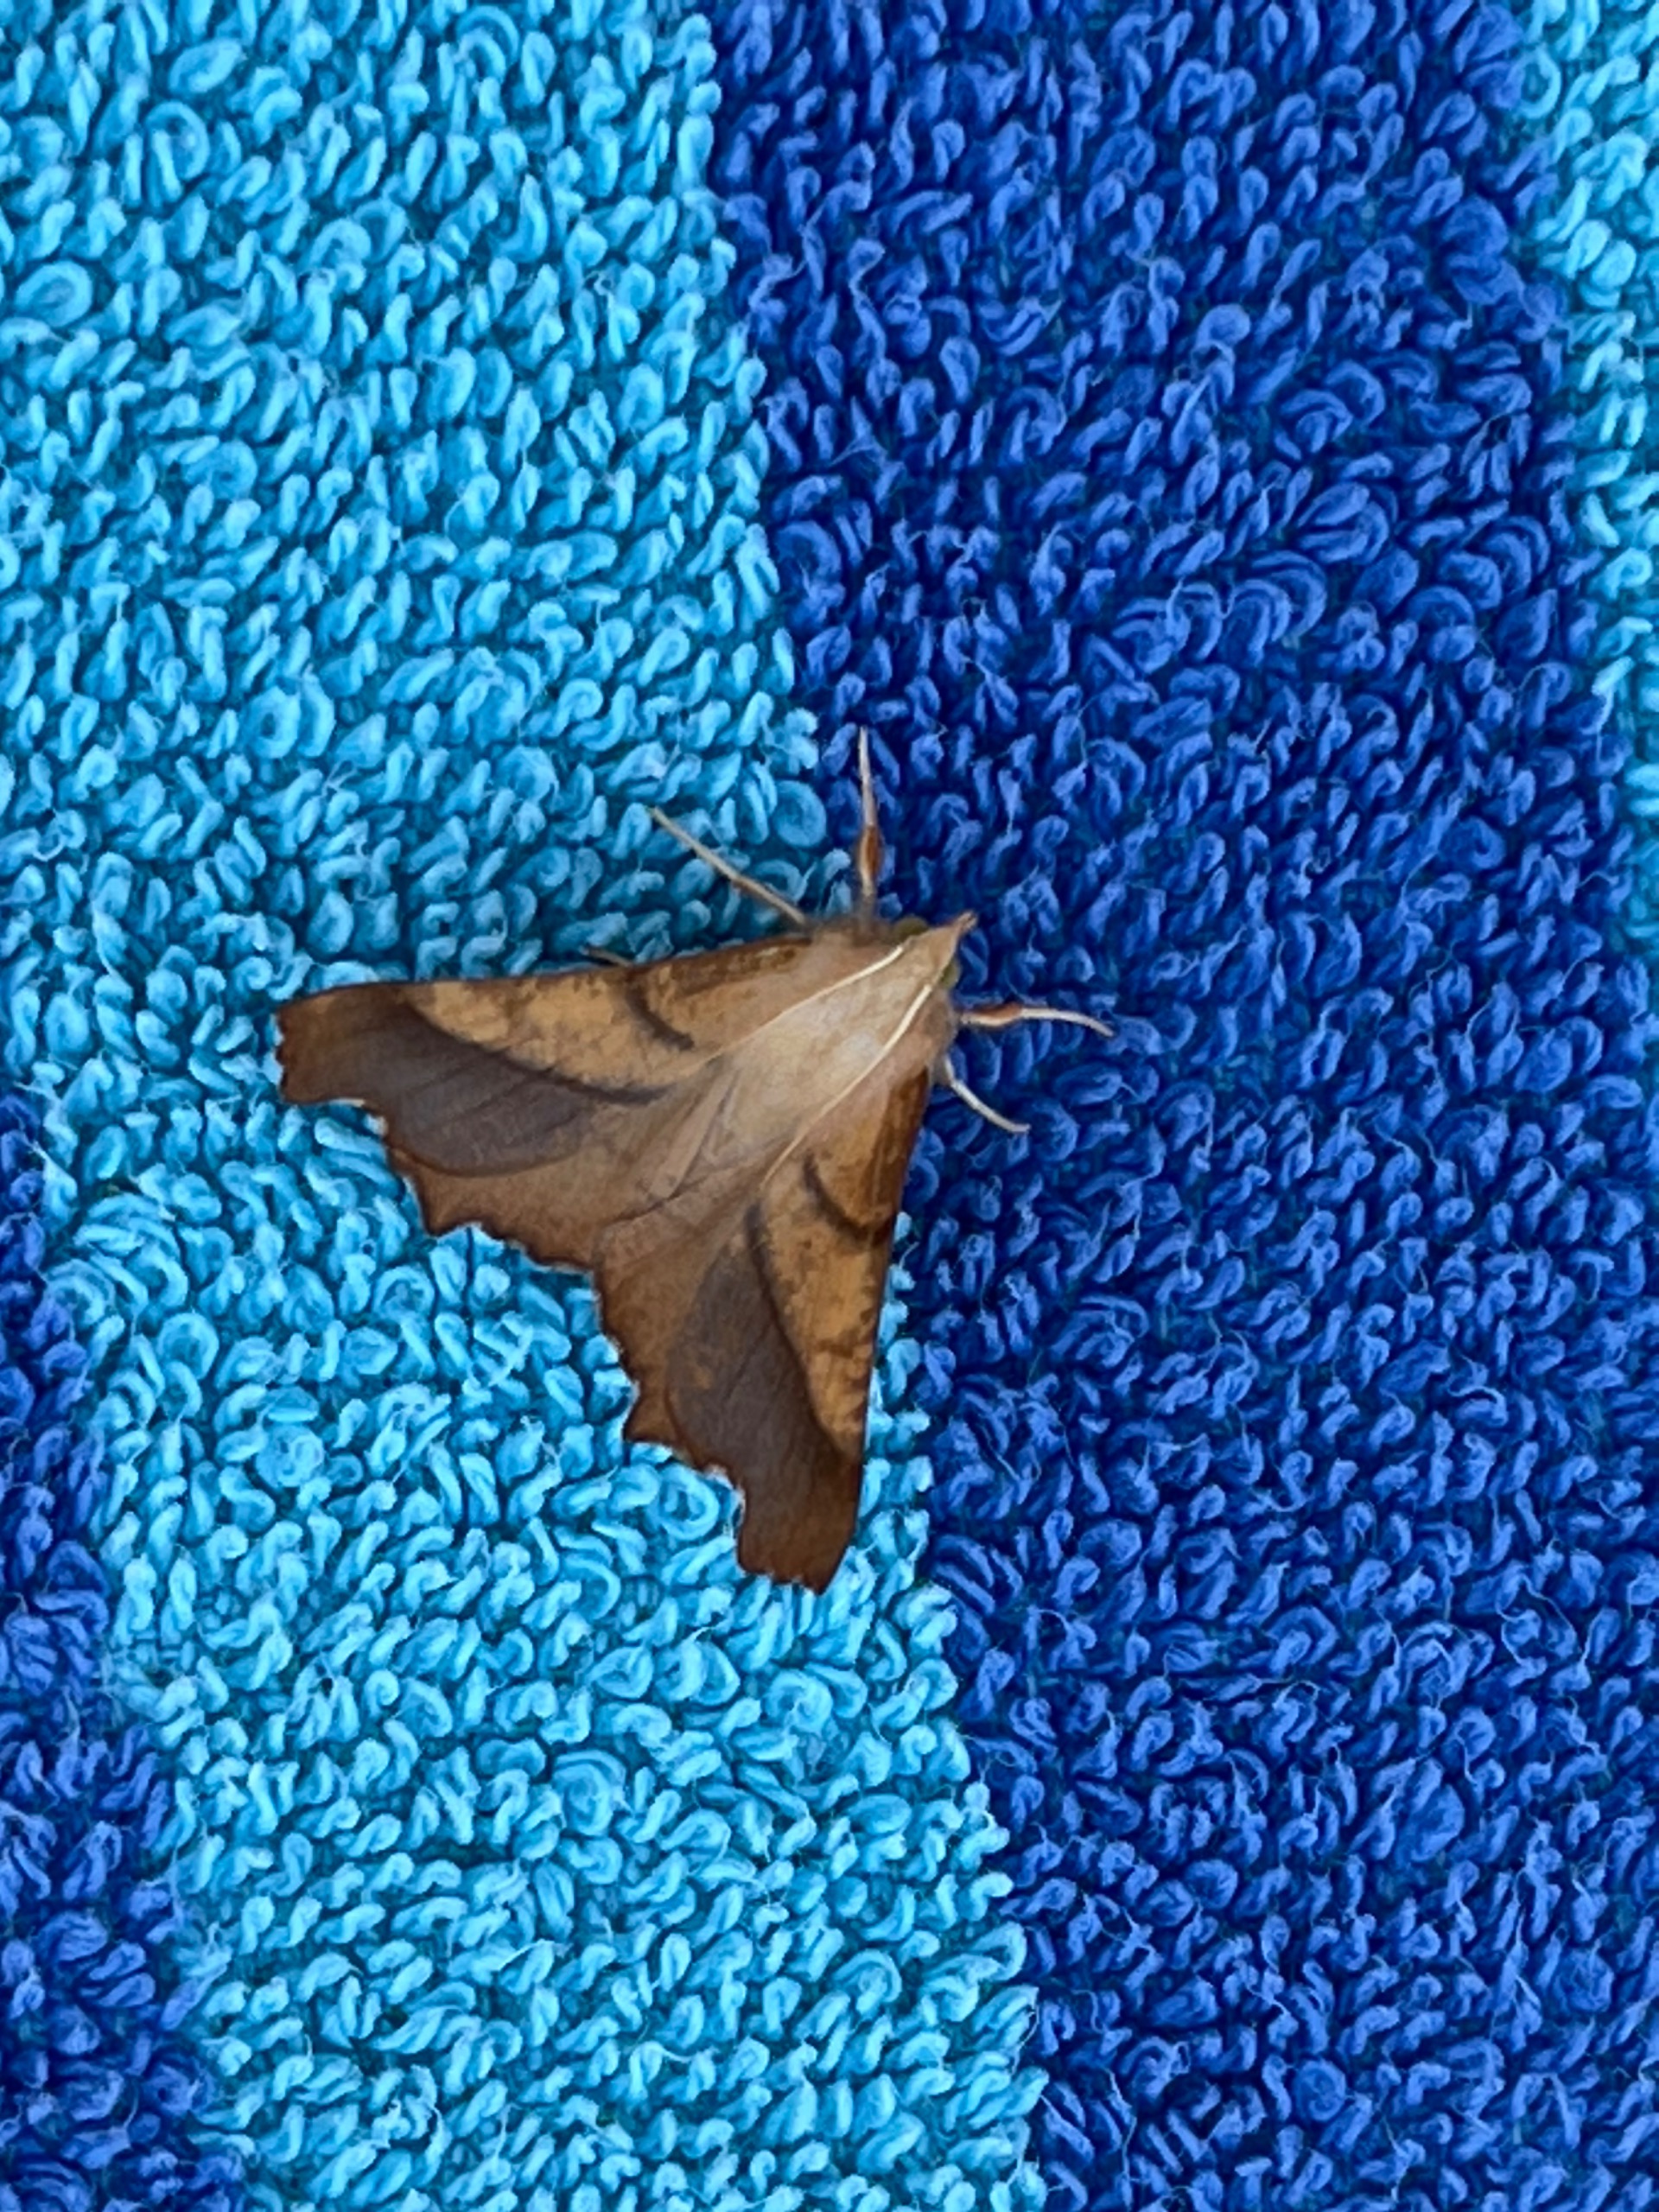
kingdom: Animalia
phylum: Arthropoda
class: Insecta
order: Lepidoptera
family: Geometridae
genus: Ennomos
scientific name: Ennomos fuscantaria
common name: Asketandmåler
